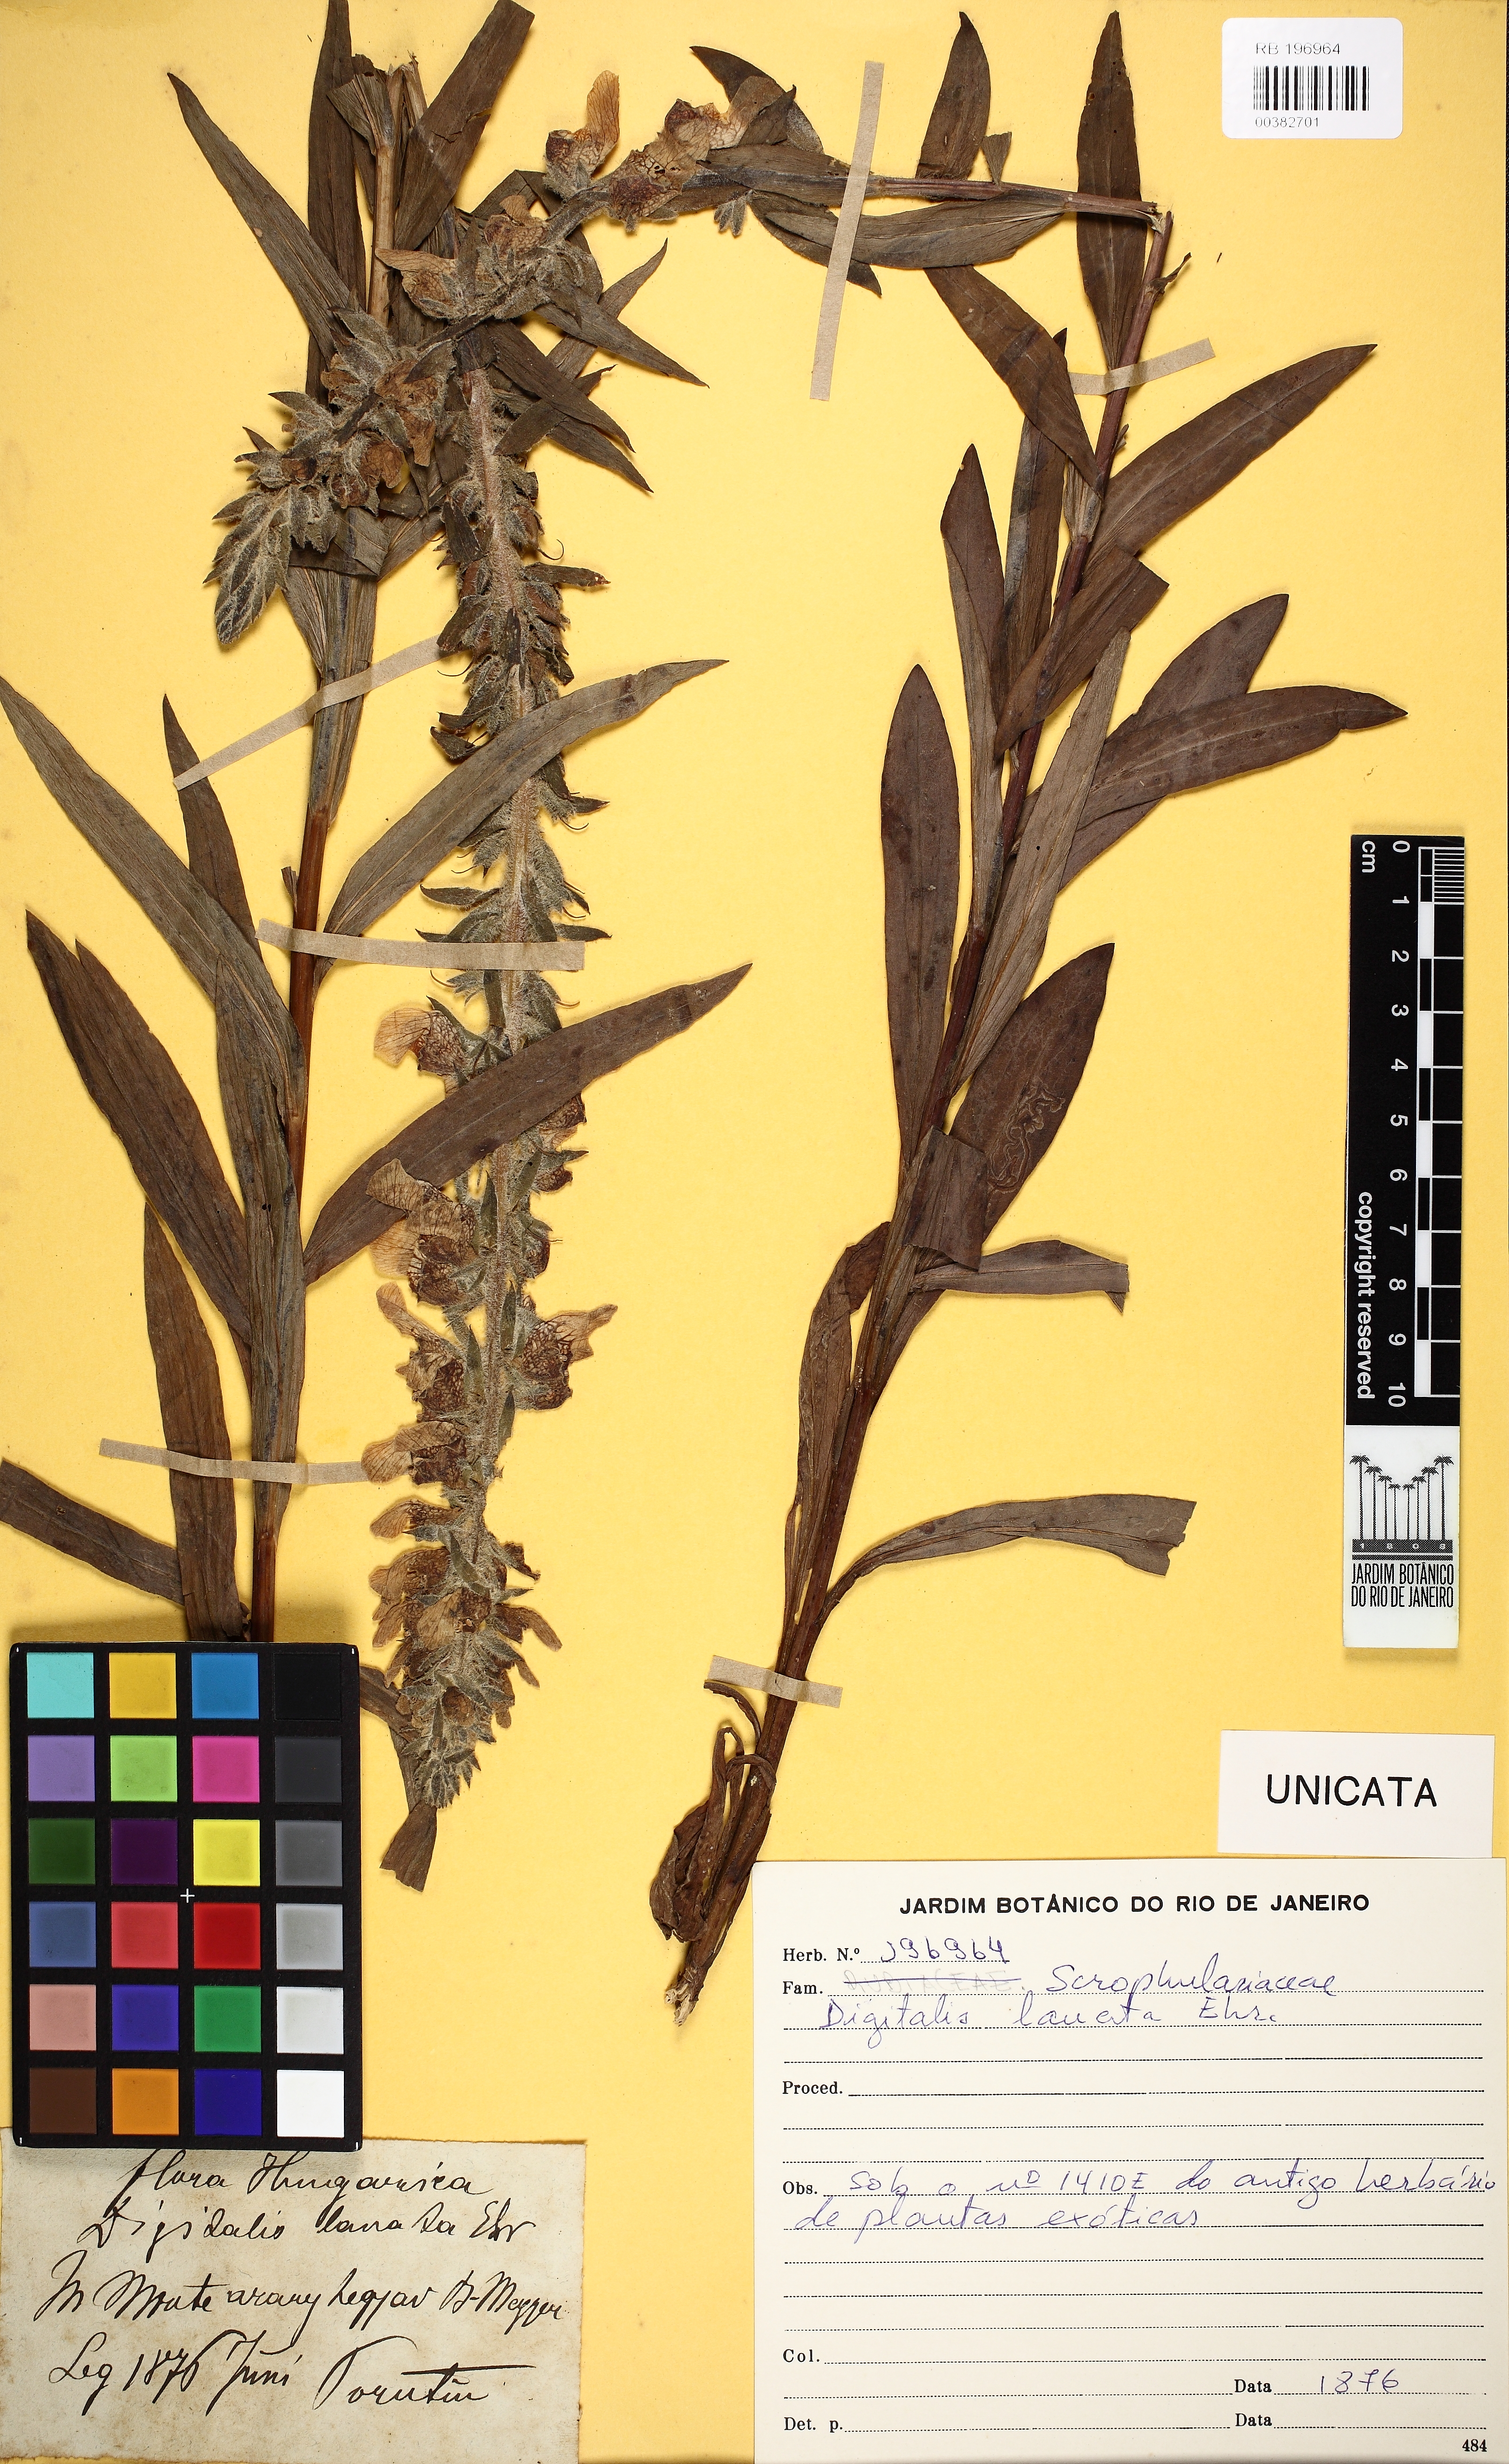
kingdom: Plantae
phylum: Tracheophyta
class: Magnoliopsida
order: Lamiales
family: Plantaginaceae
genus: Digitalis
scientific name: Digitalis lanata
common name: Grecian foxglove
